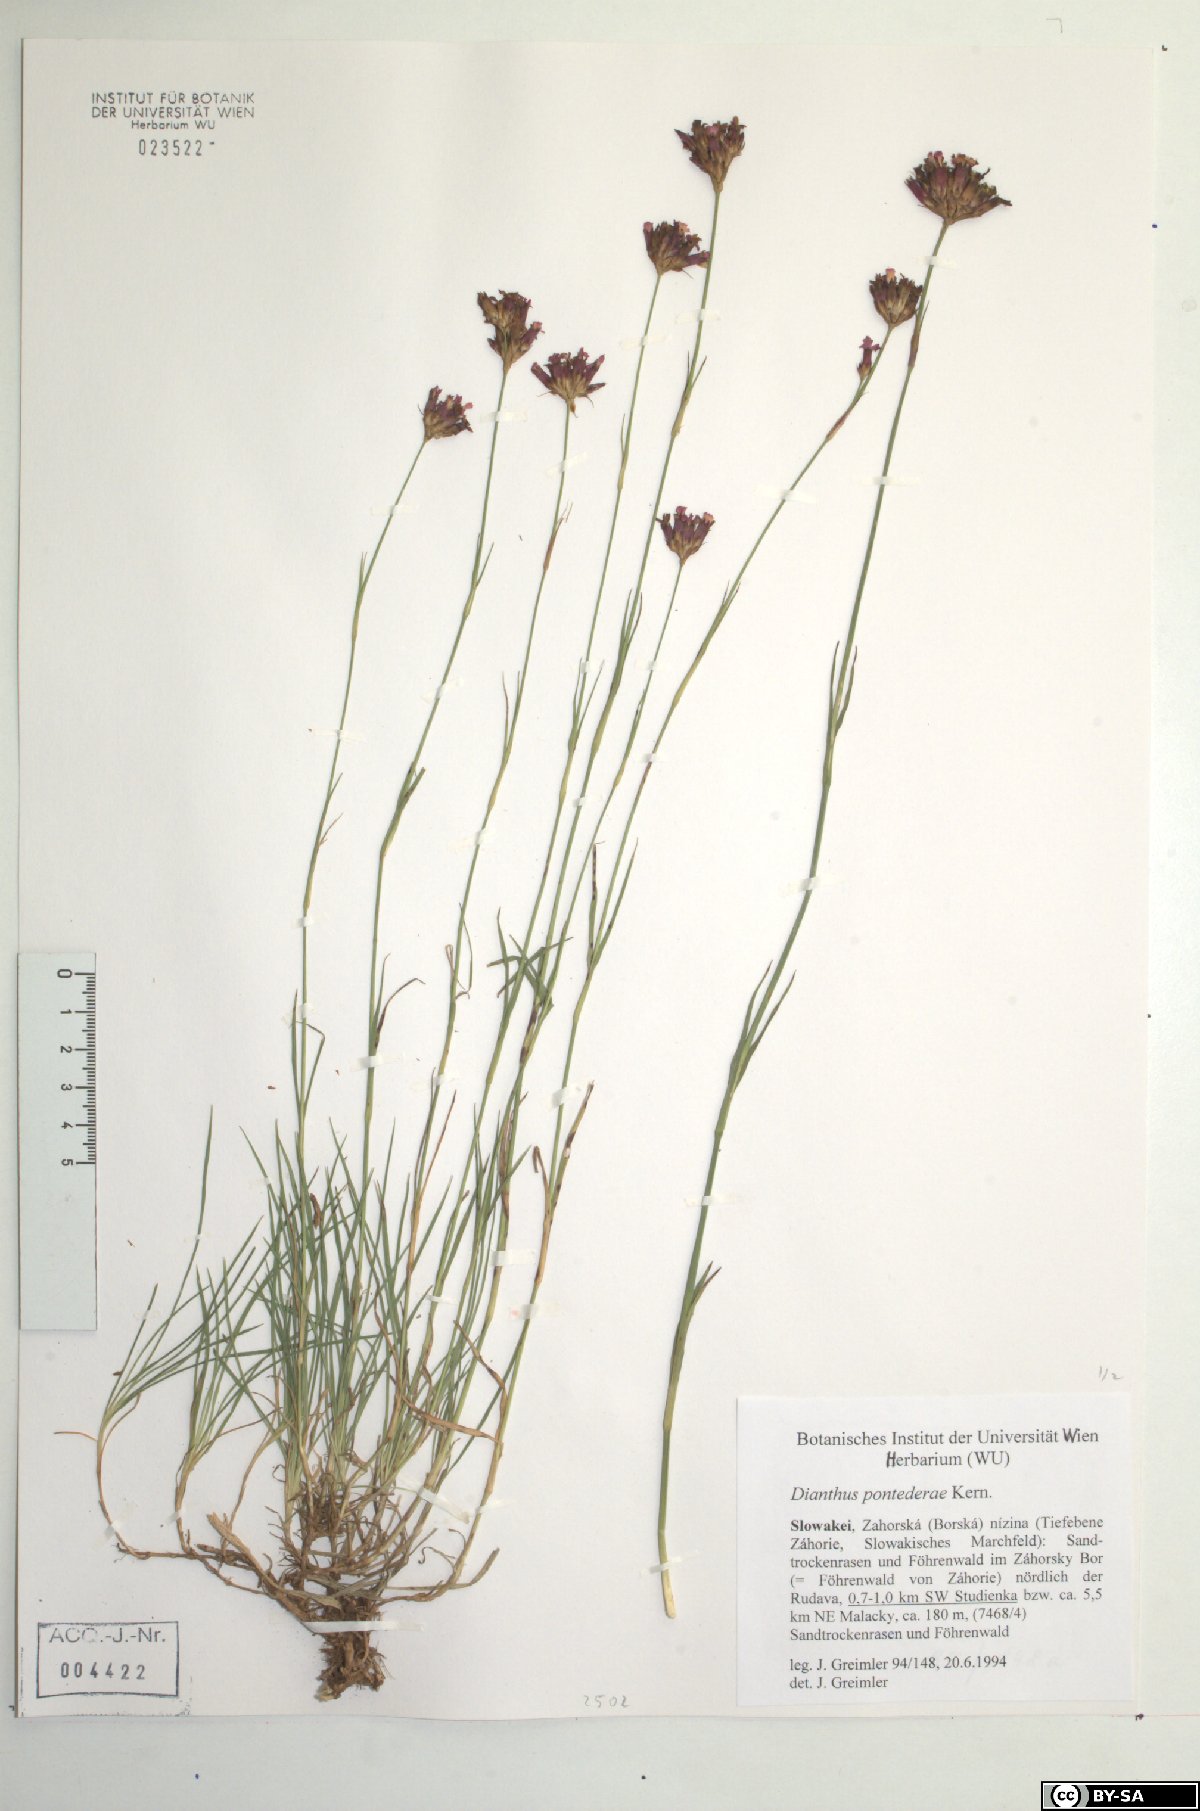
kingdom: Plantae
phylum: Tracheophyta
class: Magnoliopsida
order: Caryophyllales
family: Caryophyllaceae
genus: Dianthus
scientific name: Dianthus pontederae
